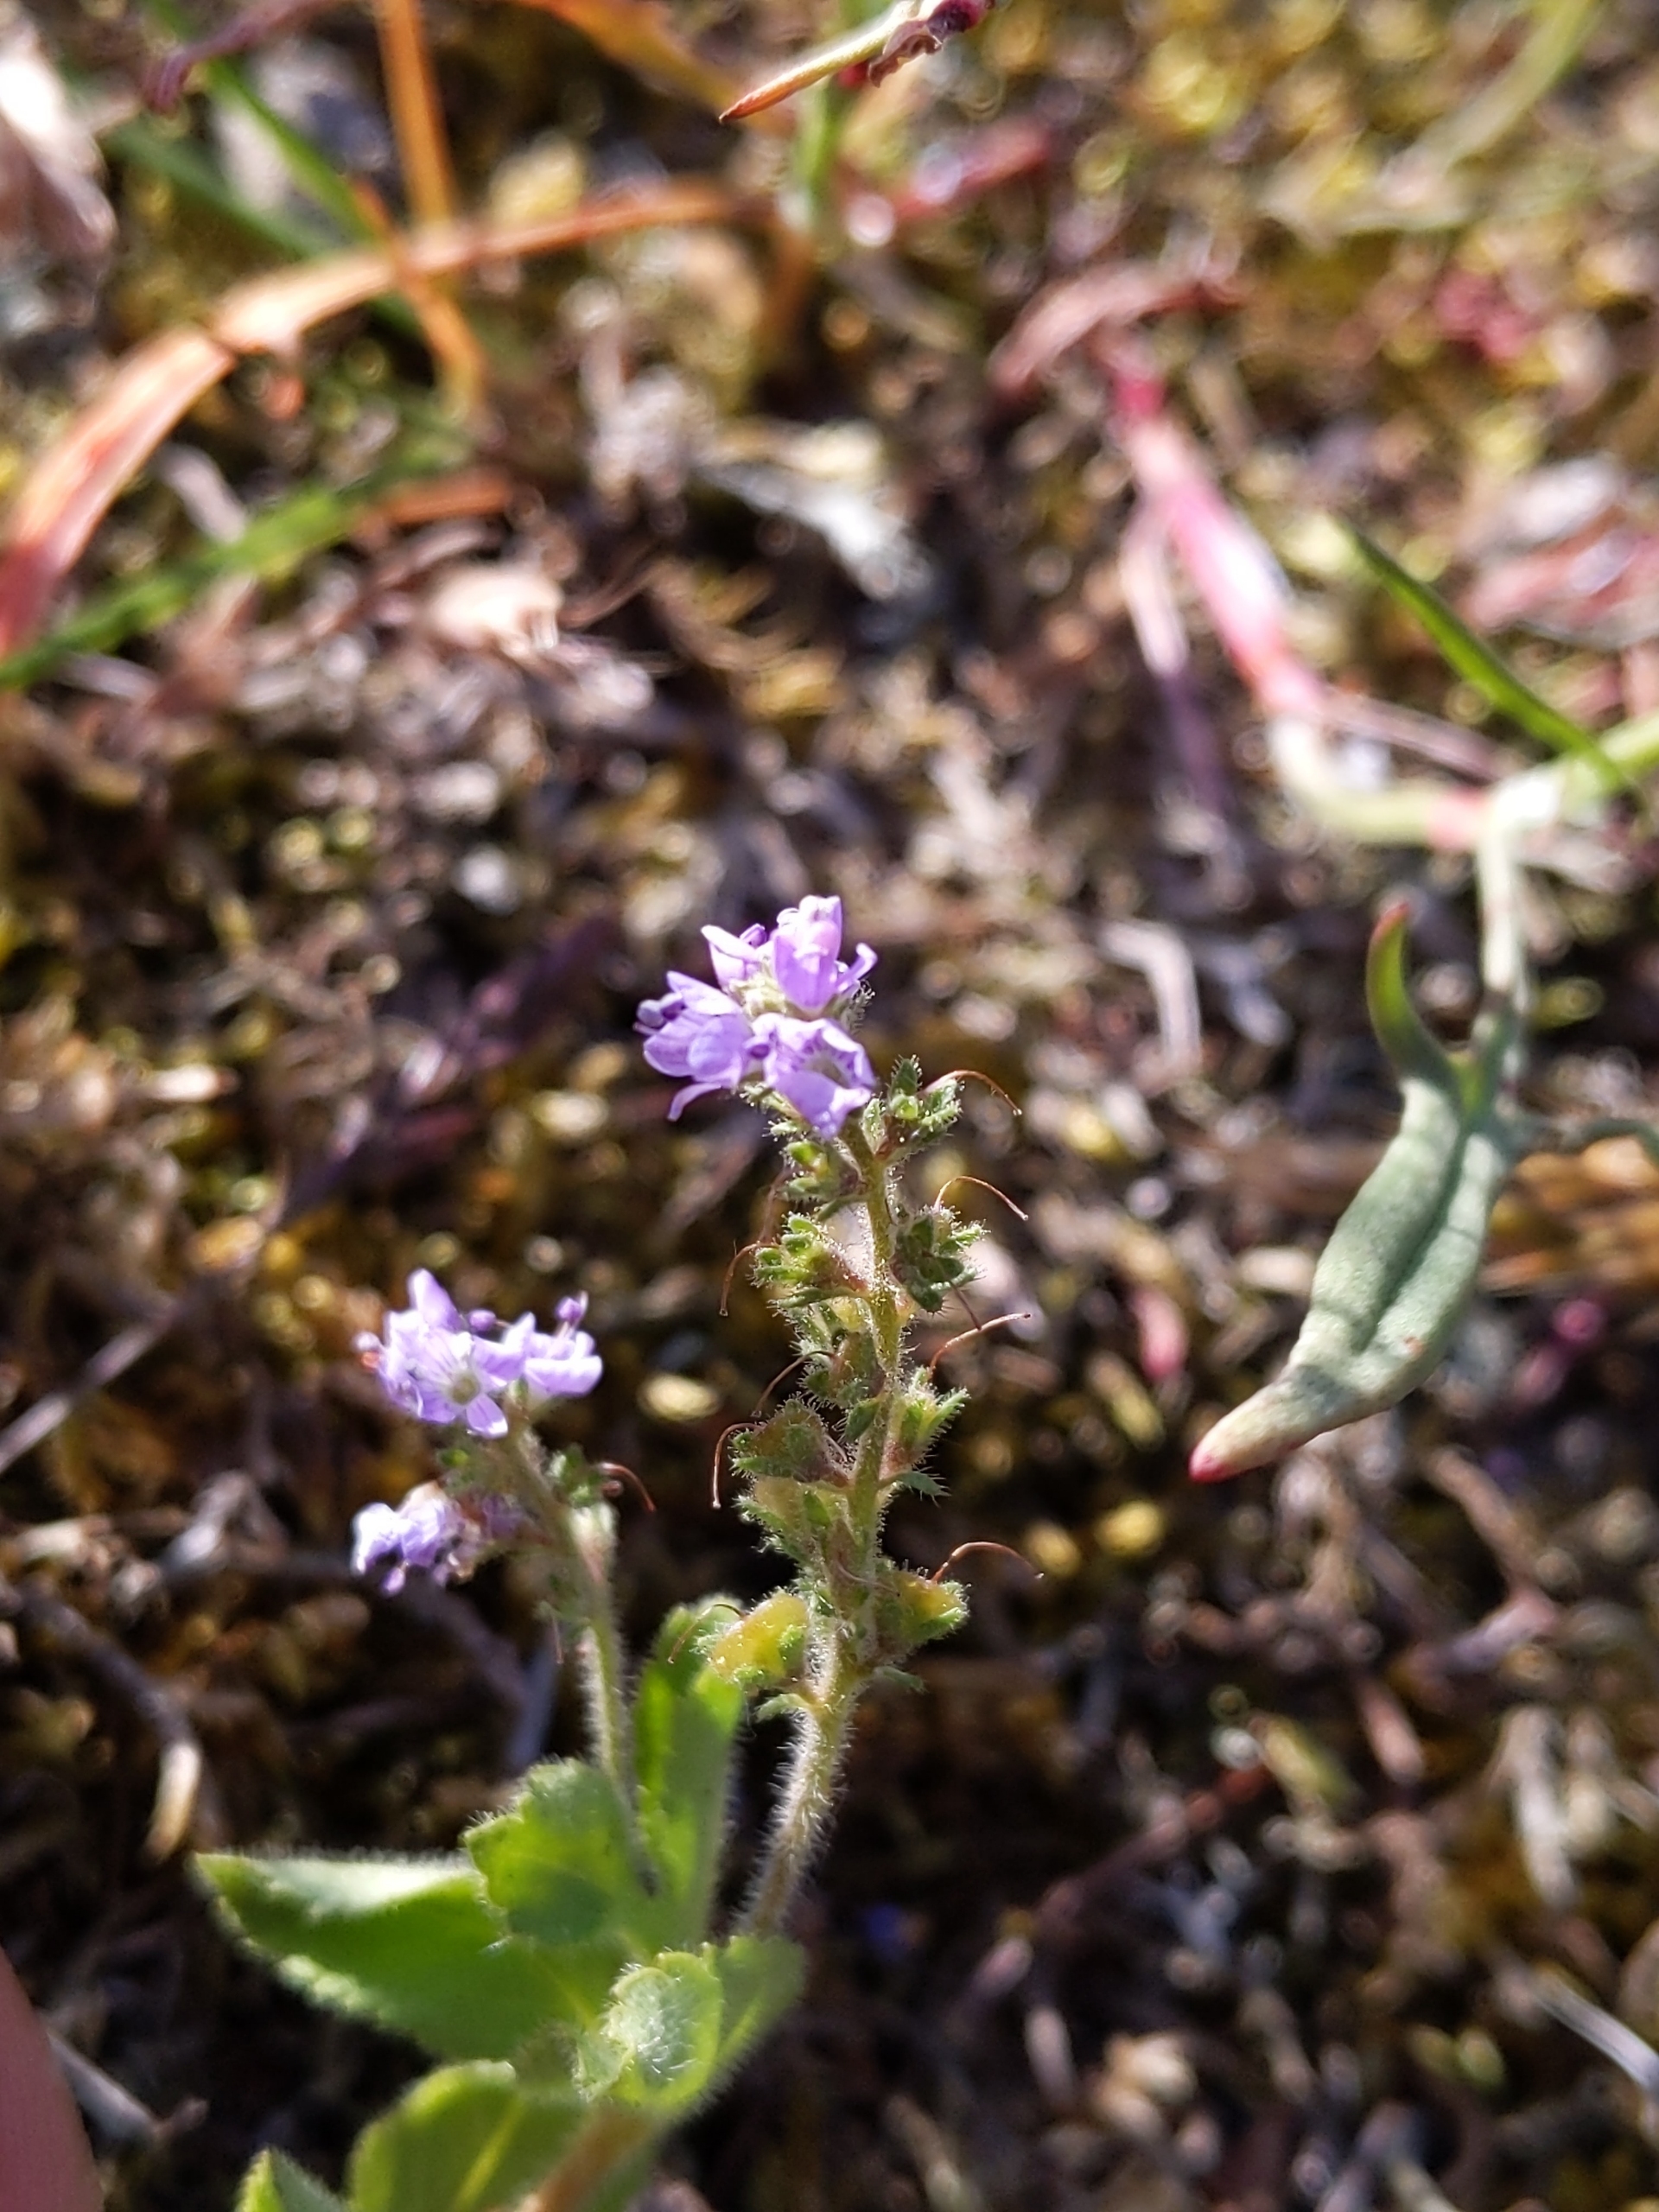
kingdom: Plantae
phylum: Tracheophyta
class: Magnoliopsida
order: Lamiales
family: Plantaginaceae
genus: Veronica
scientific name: Veronica officinalis
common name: Læge-ærenpris
